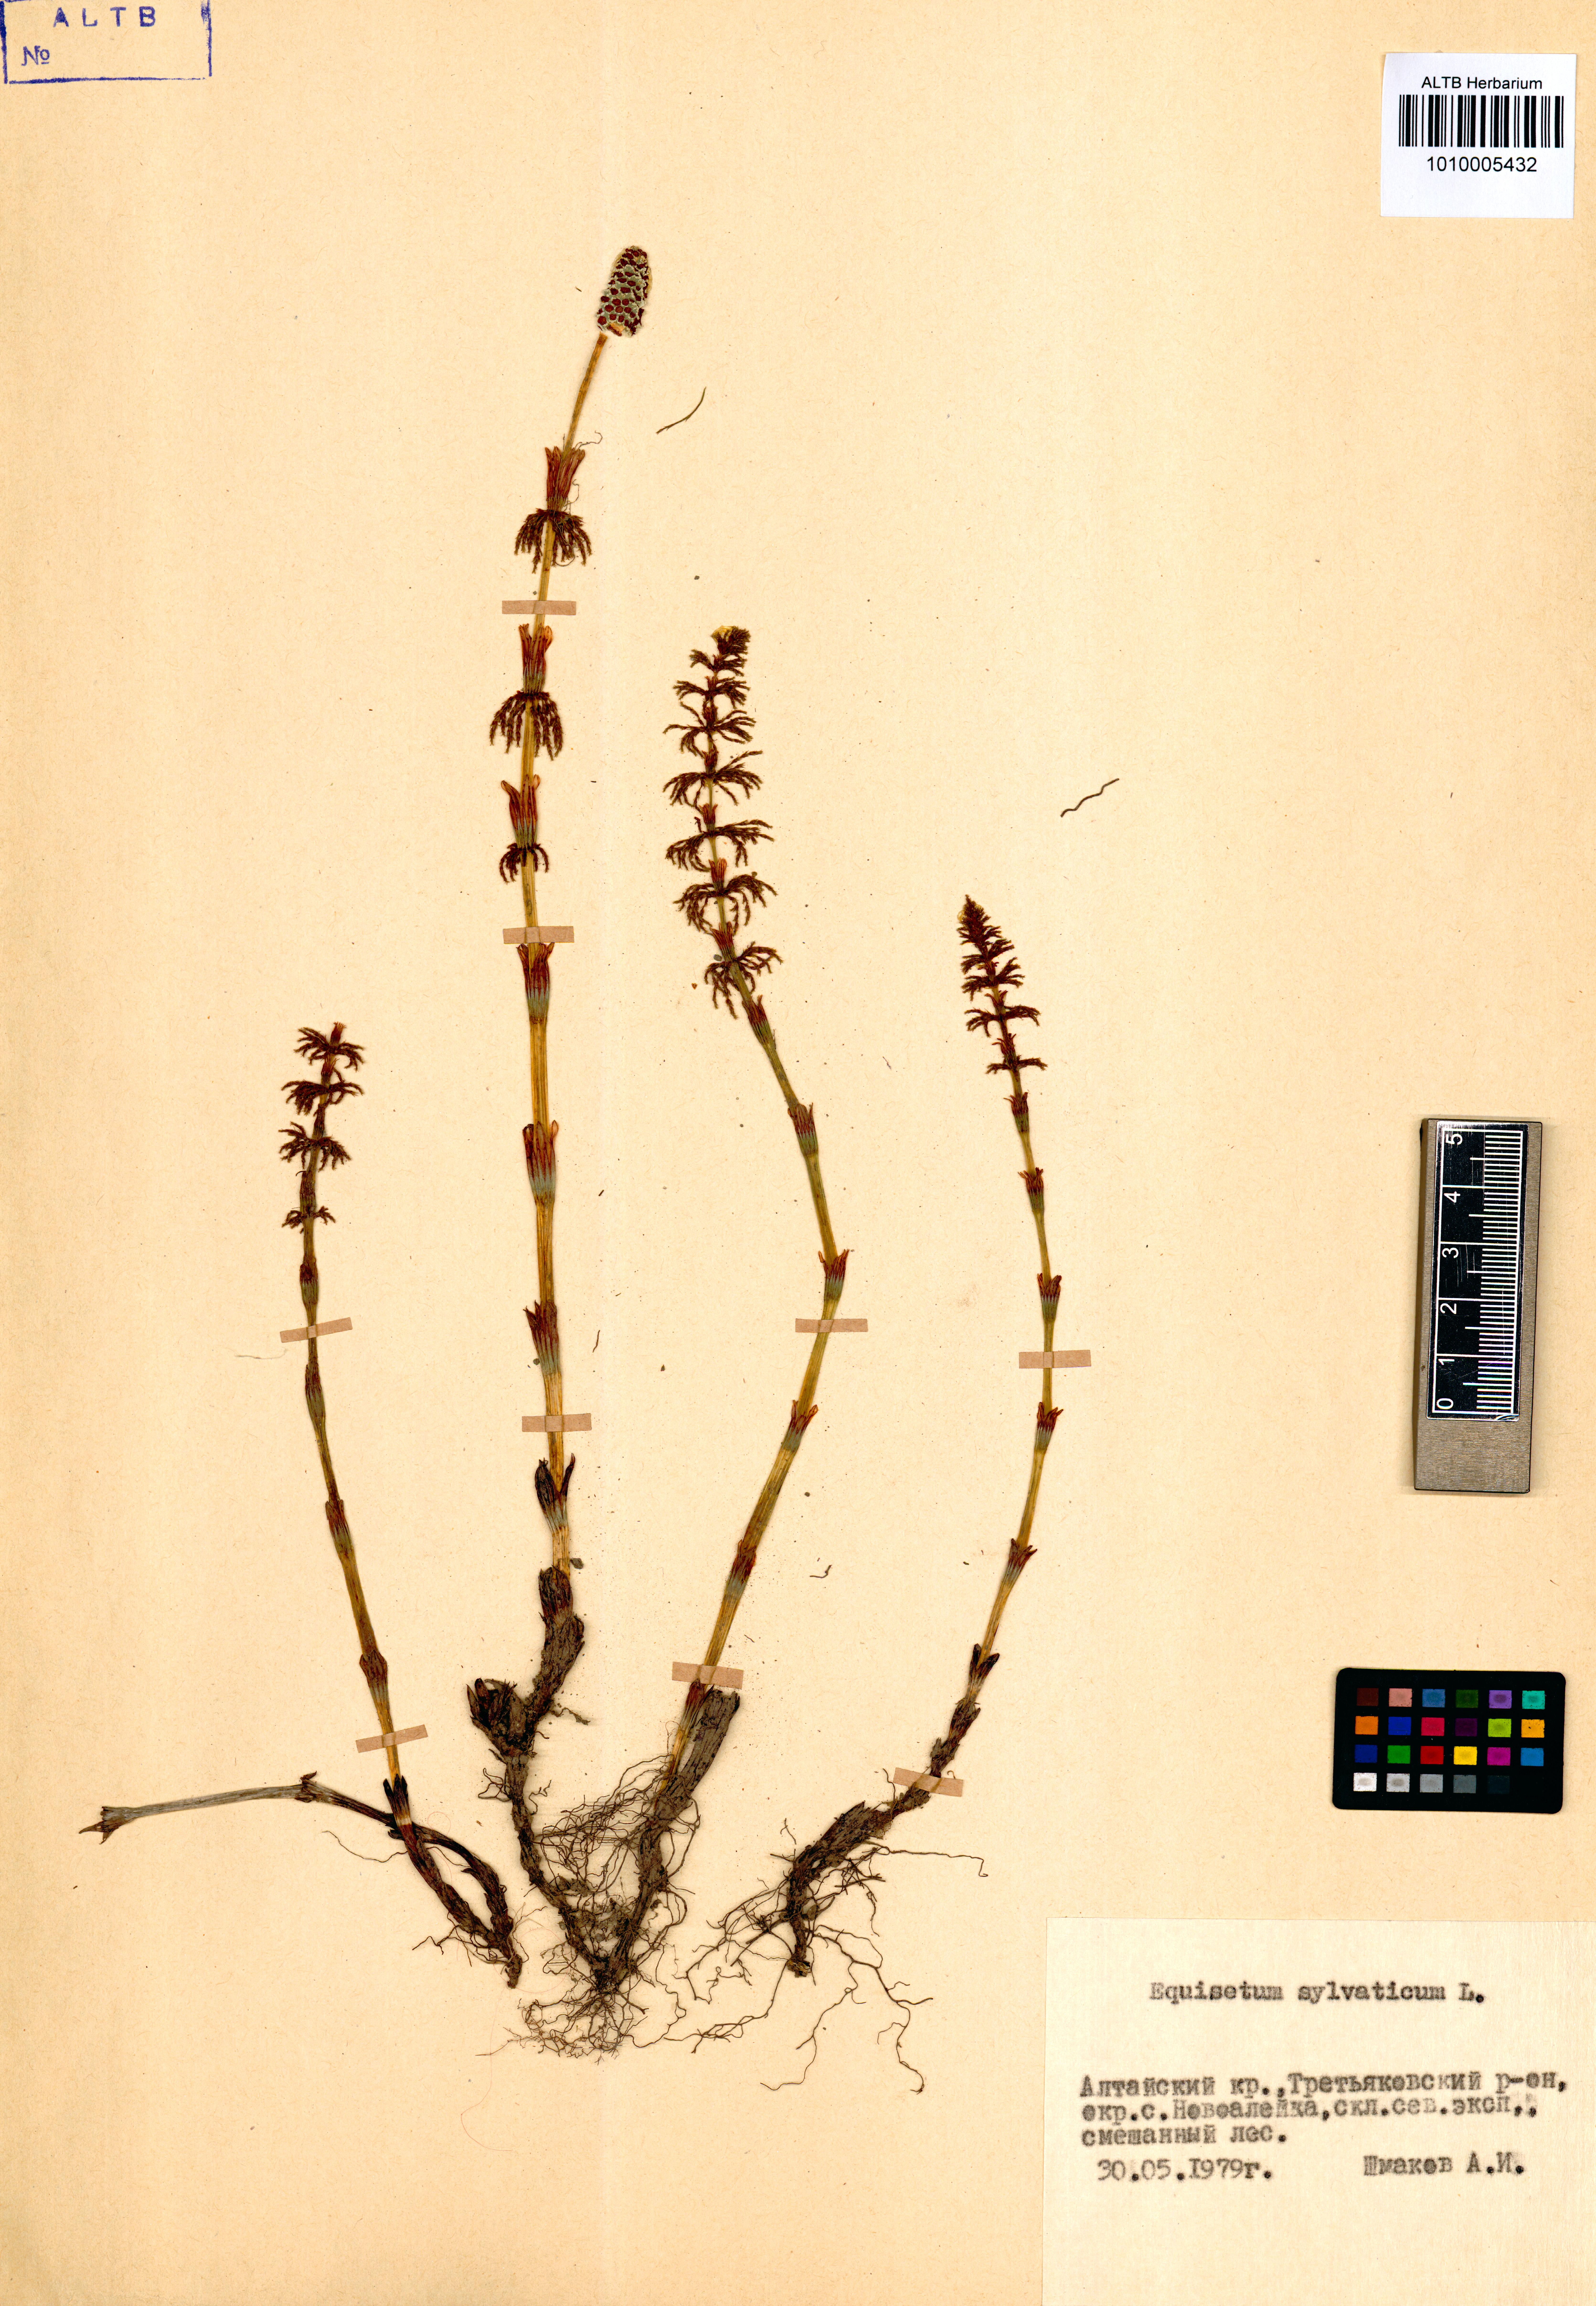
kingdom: Plantae
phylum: Tracheophyta
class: Polypodiopsida
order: Equisetales
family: Equisetaceae
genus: Equisetum
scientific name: Equisetum sylvaticum
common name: Wood horsetail
